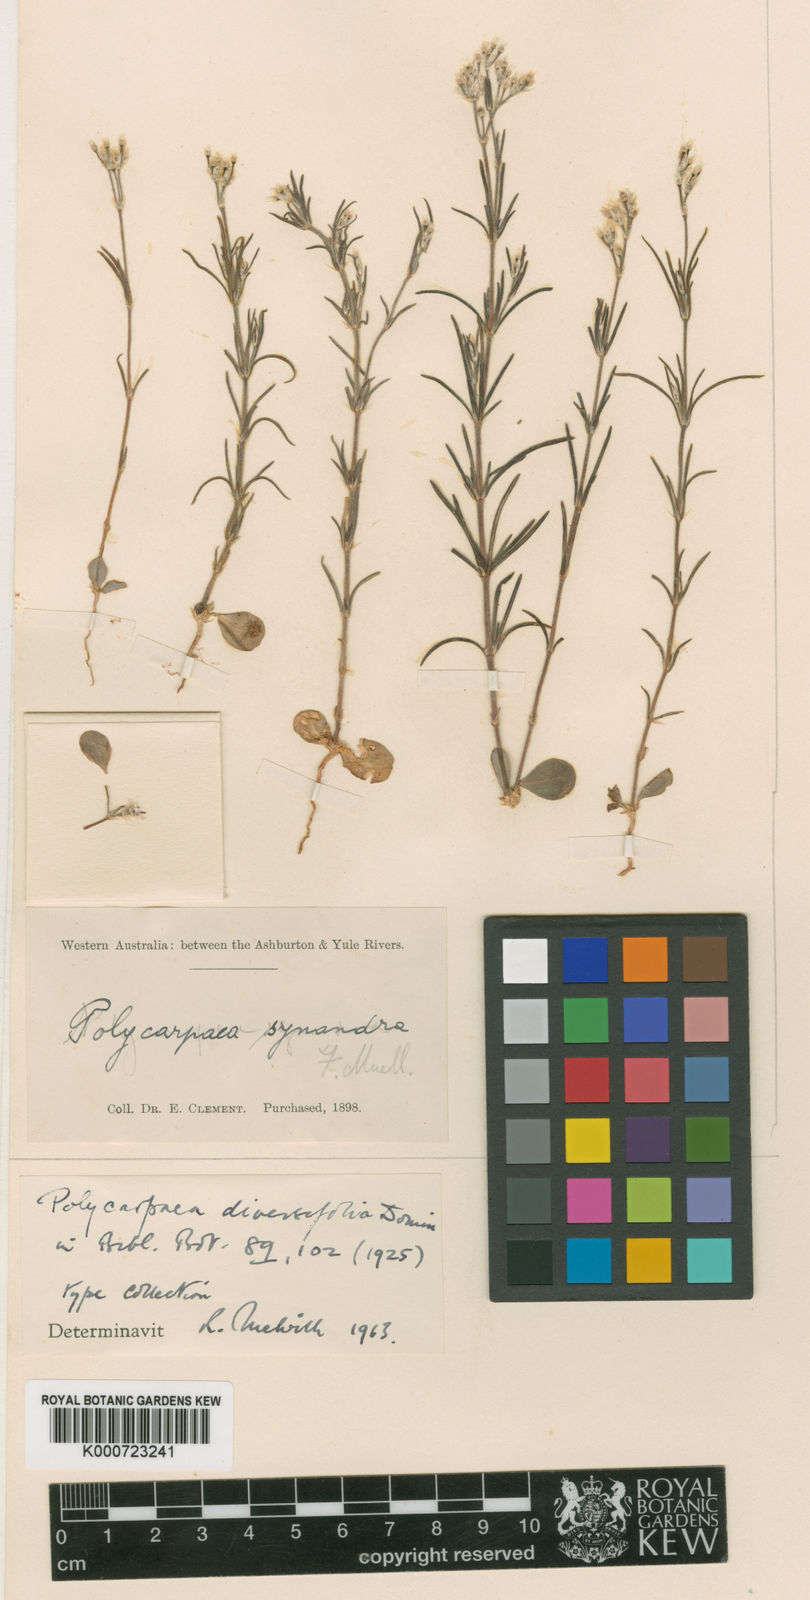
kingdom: Plantae
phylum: Tracheophyta
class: Magnoliopsida
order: Caryophyllales
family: Caryophyllaceae
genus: Polycarpaea
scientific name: Polycarpaea corymbosa
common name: Oldman's cap
